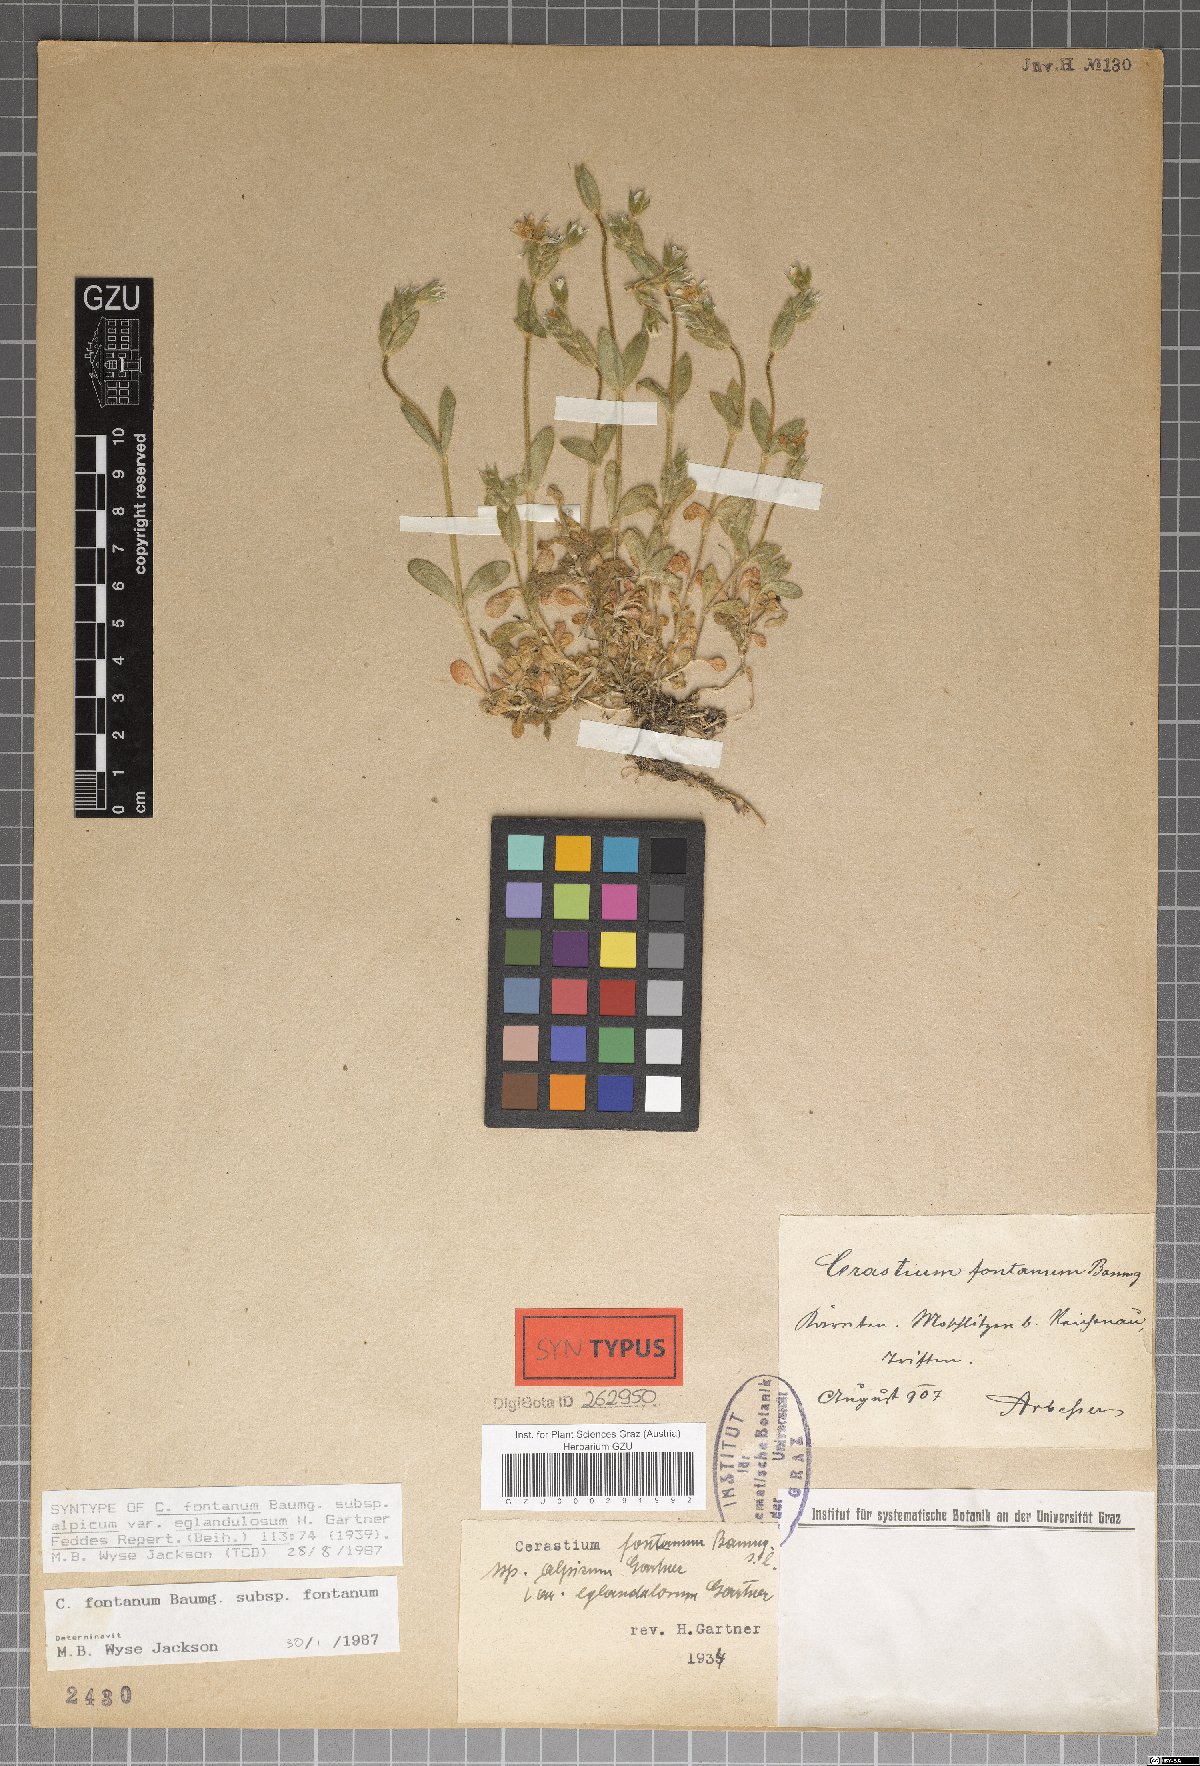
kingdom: Plantae
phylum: Tracheophyta
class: Magnoliopsida
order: Caryophyllales
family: Caryophyllaceae
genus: Cerastium
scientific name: Cerastium holosteoides
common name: Big chickweed
